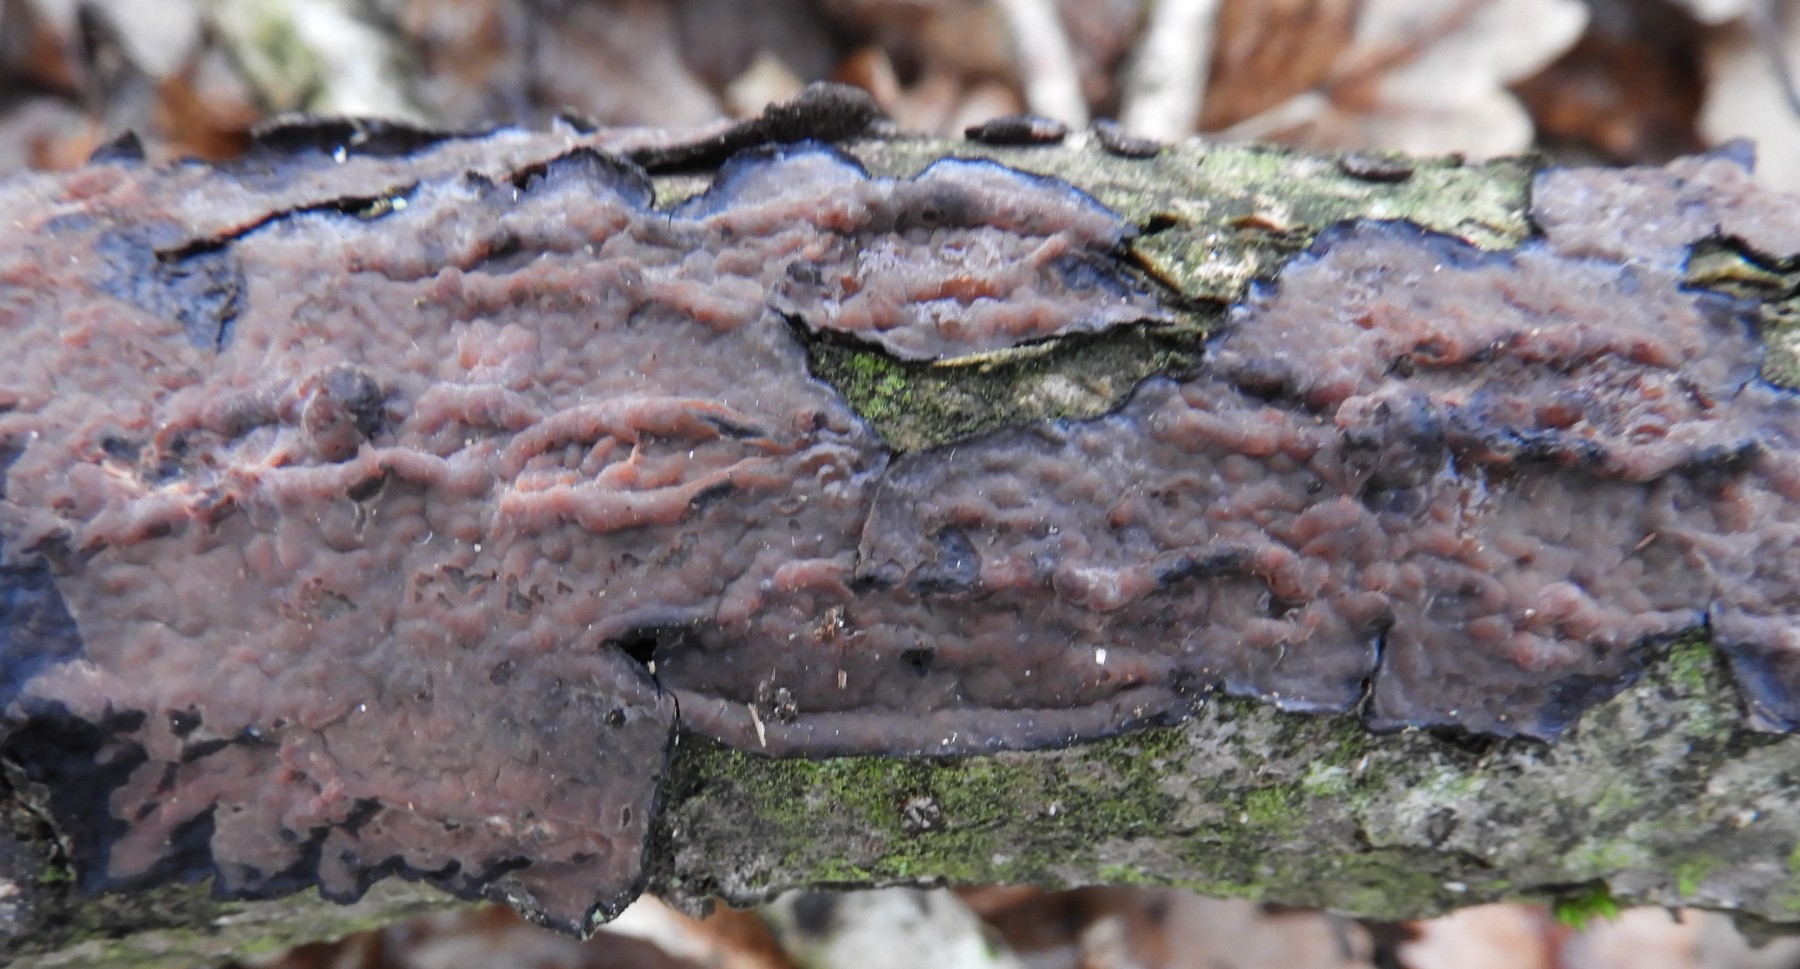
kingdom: Fungi
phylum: Basidiomycota
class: Agaricomycetes
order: Russulales
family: Peniophoraceae
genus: Peniophora
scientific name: Peniophora quercina
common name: ege-voksskind
